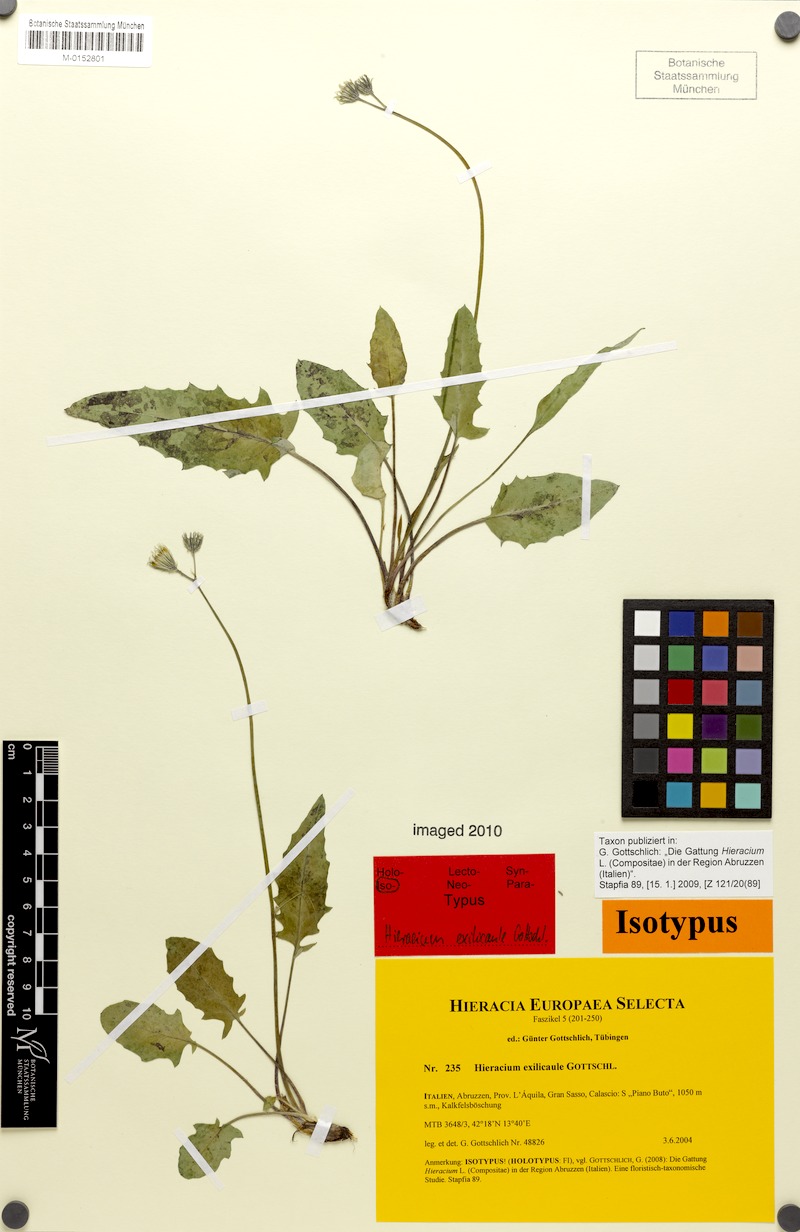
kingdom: Plantae
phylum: Tracheophyta
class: Magnoliopsida
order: Asterales
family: Asteraceae
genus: Hieracium
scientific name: Hieracium exilicaule
